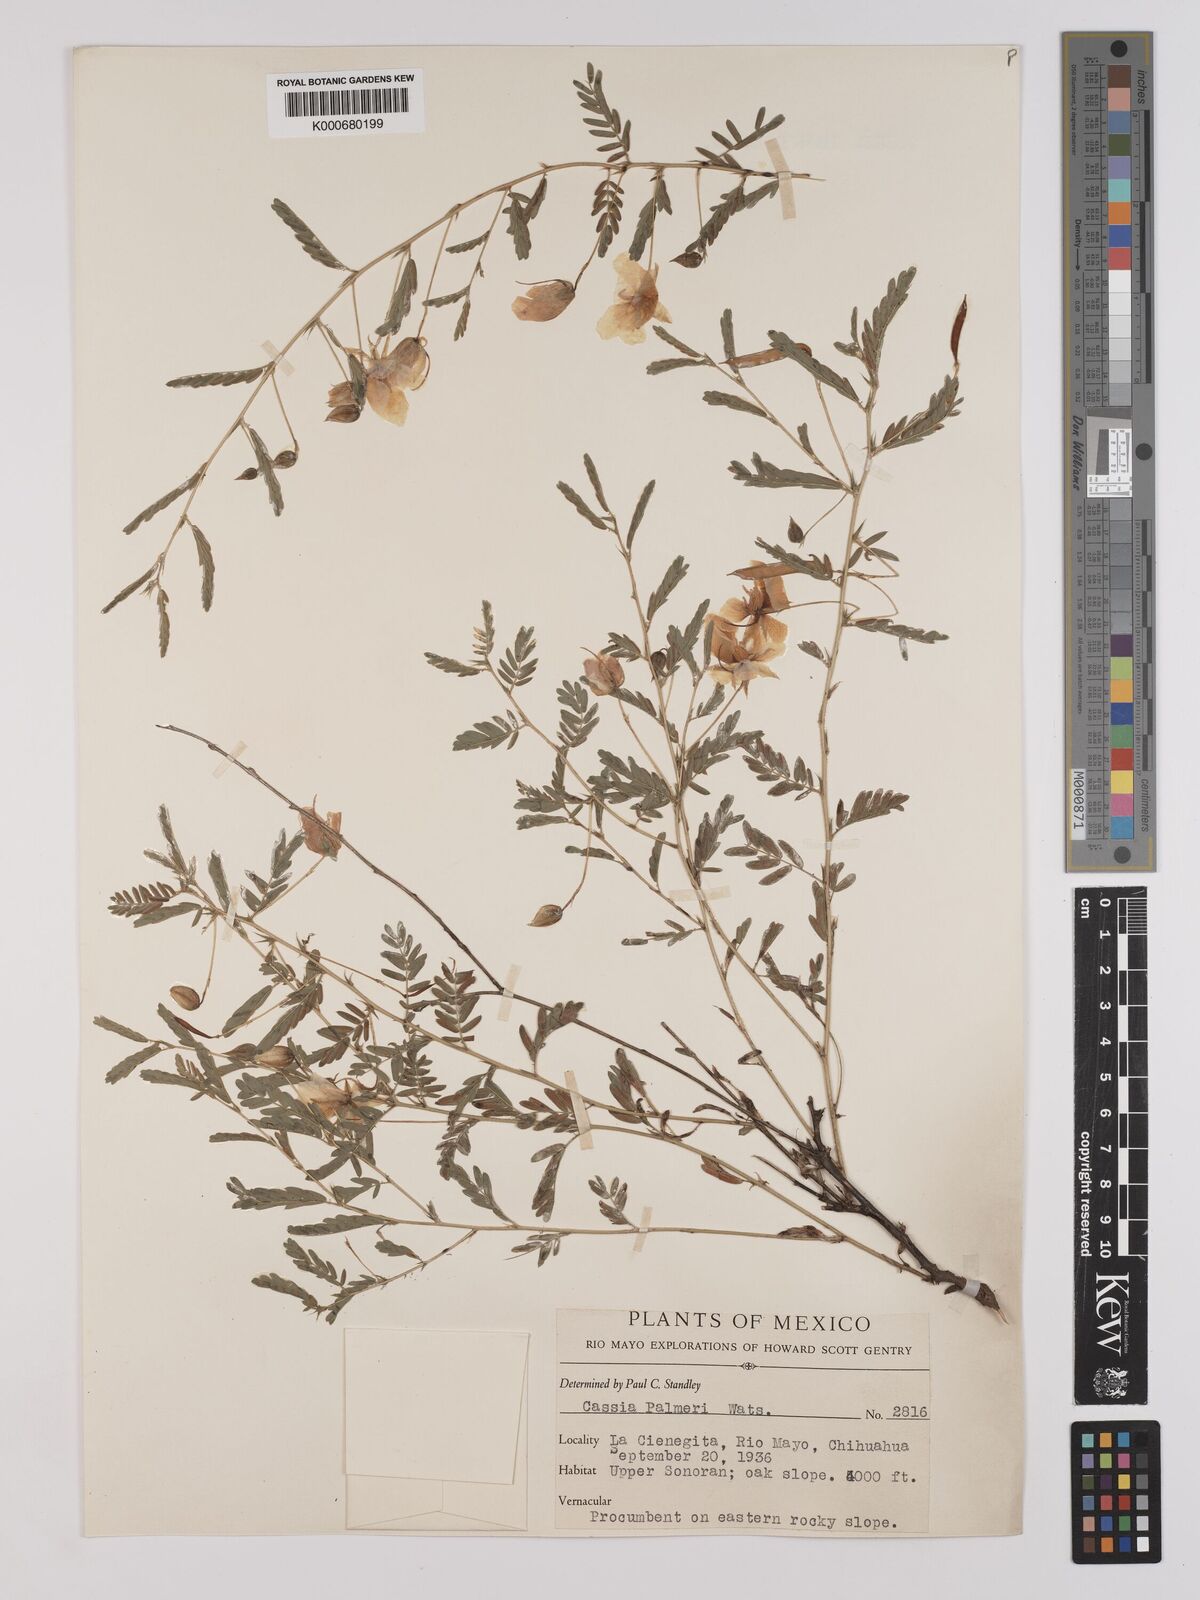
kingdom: Plantae
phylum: Tracheophyta
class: Magnoliopsida
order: Fabales
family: Fabaceae
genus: Chamaecrista
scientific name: Chamaecrista serpens
